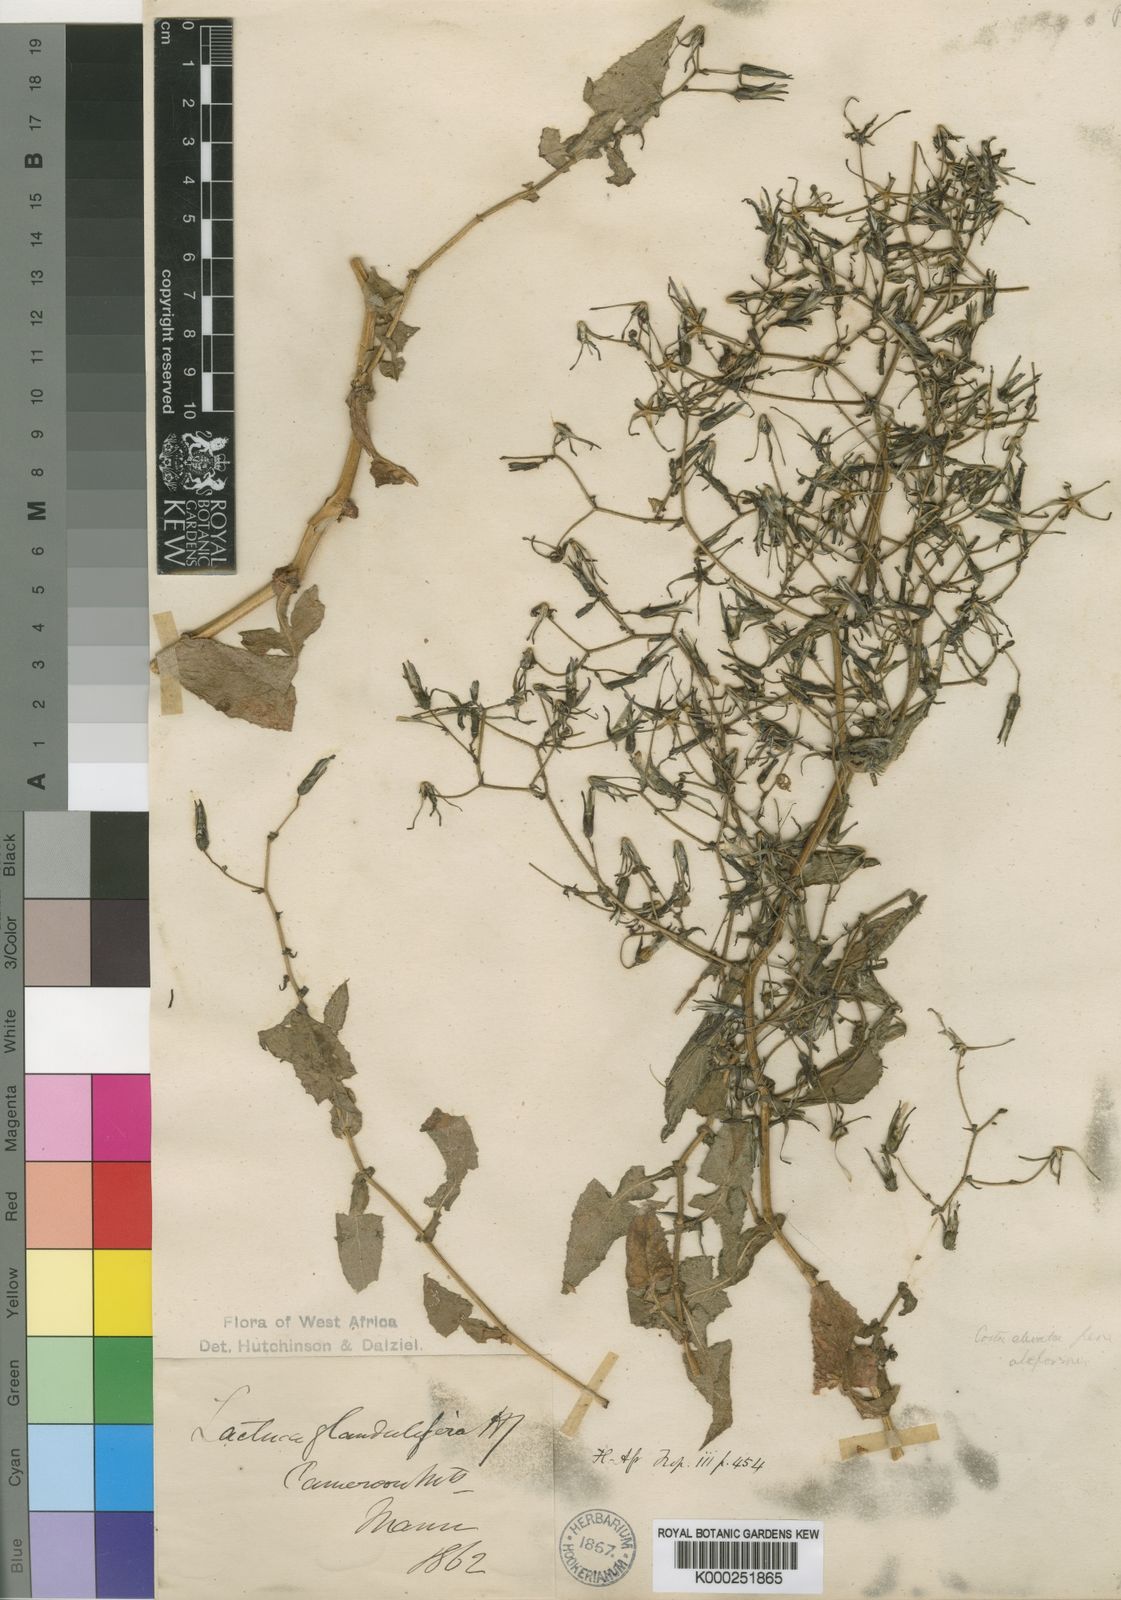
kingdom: Plantae
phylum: Tracheophyta
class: Magnoliopsida
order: Asterales
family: Asteraceae
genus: Lactuca
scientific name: Lactuca glandulifera
